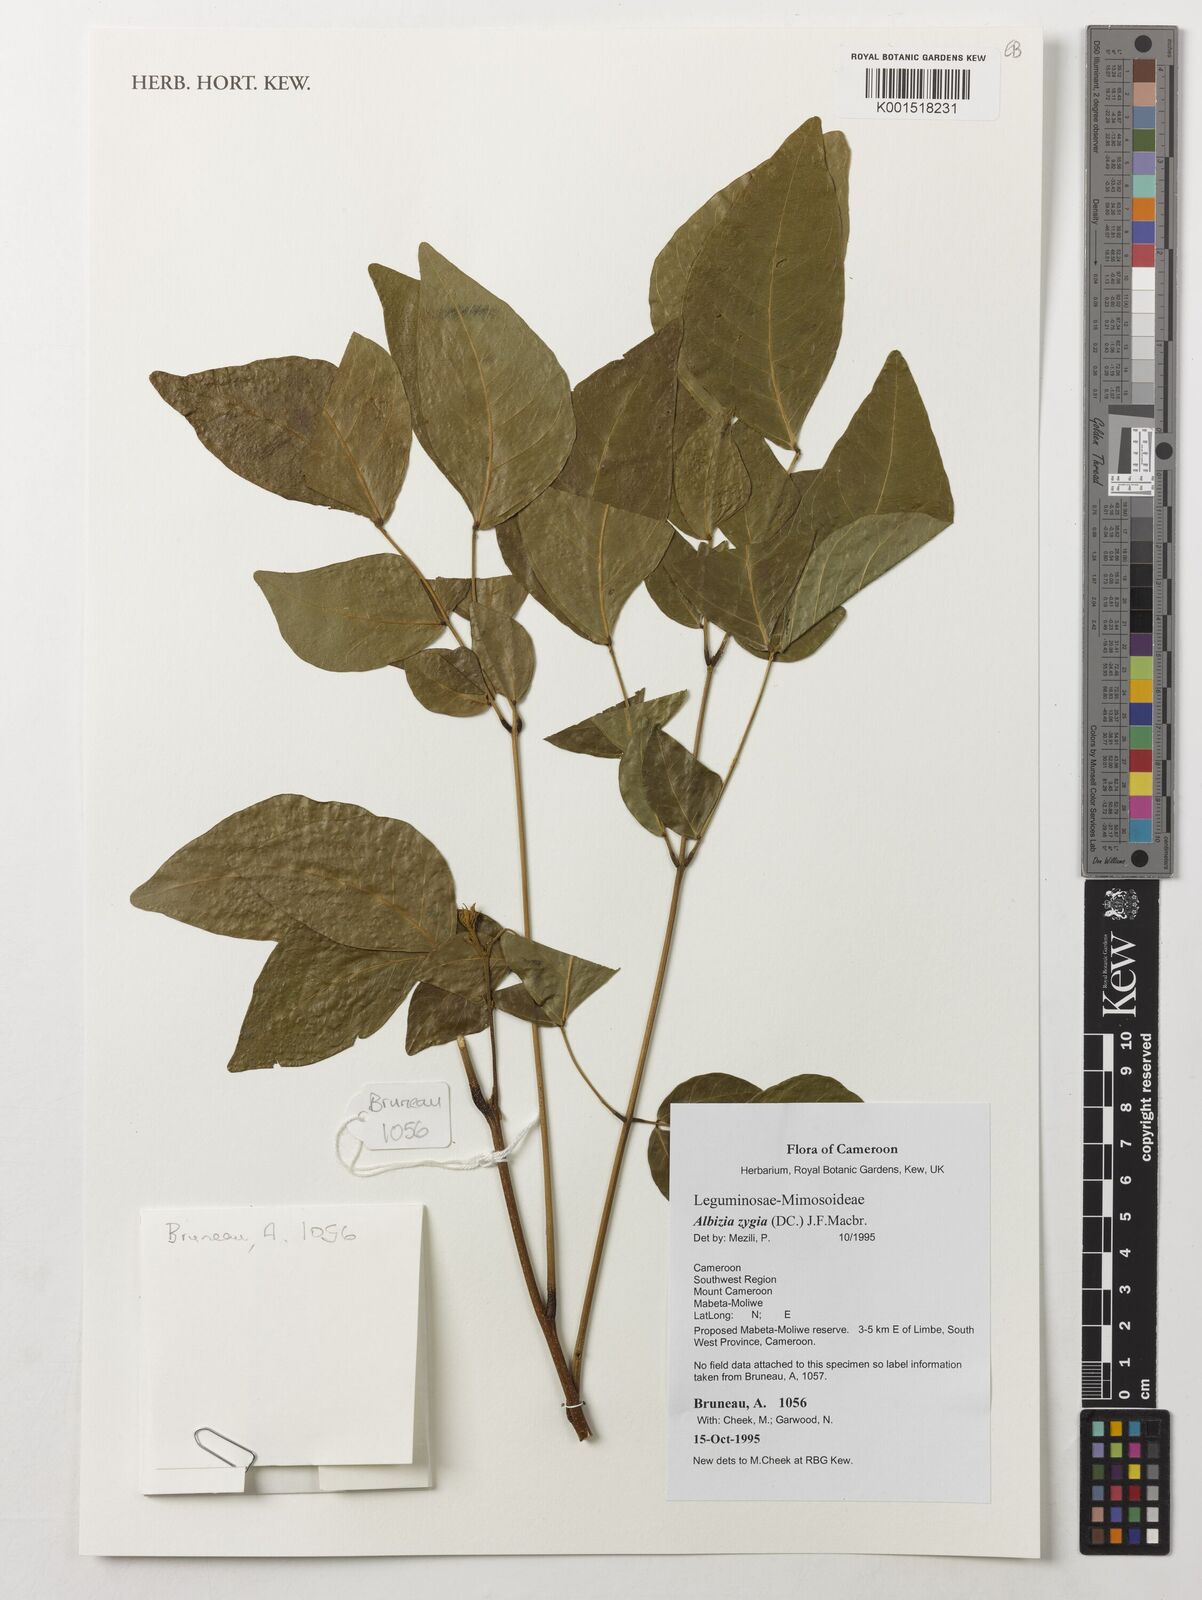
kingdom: Plantae
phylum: Tracheophyta
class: Magnoliopsida
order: Fabales
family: Fabaceae
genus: Albizia
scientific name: Albizia zygia
